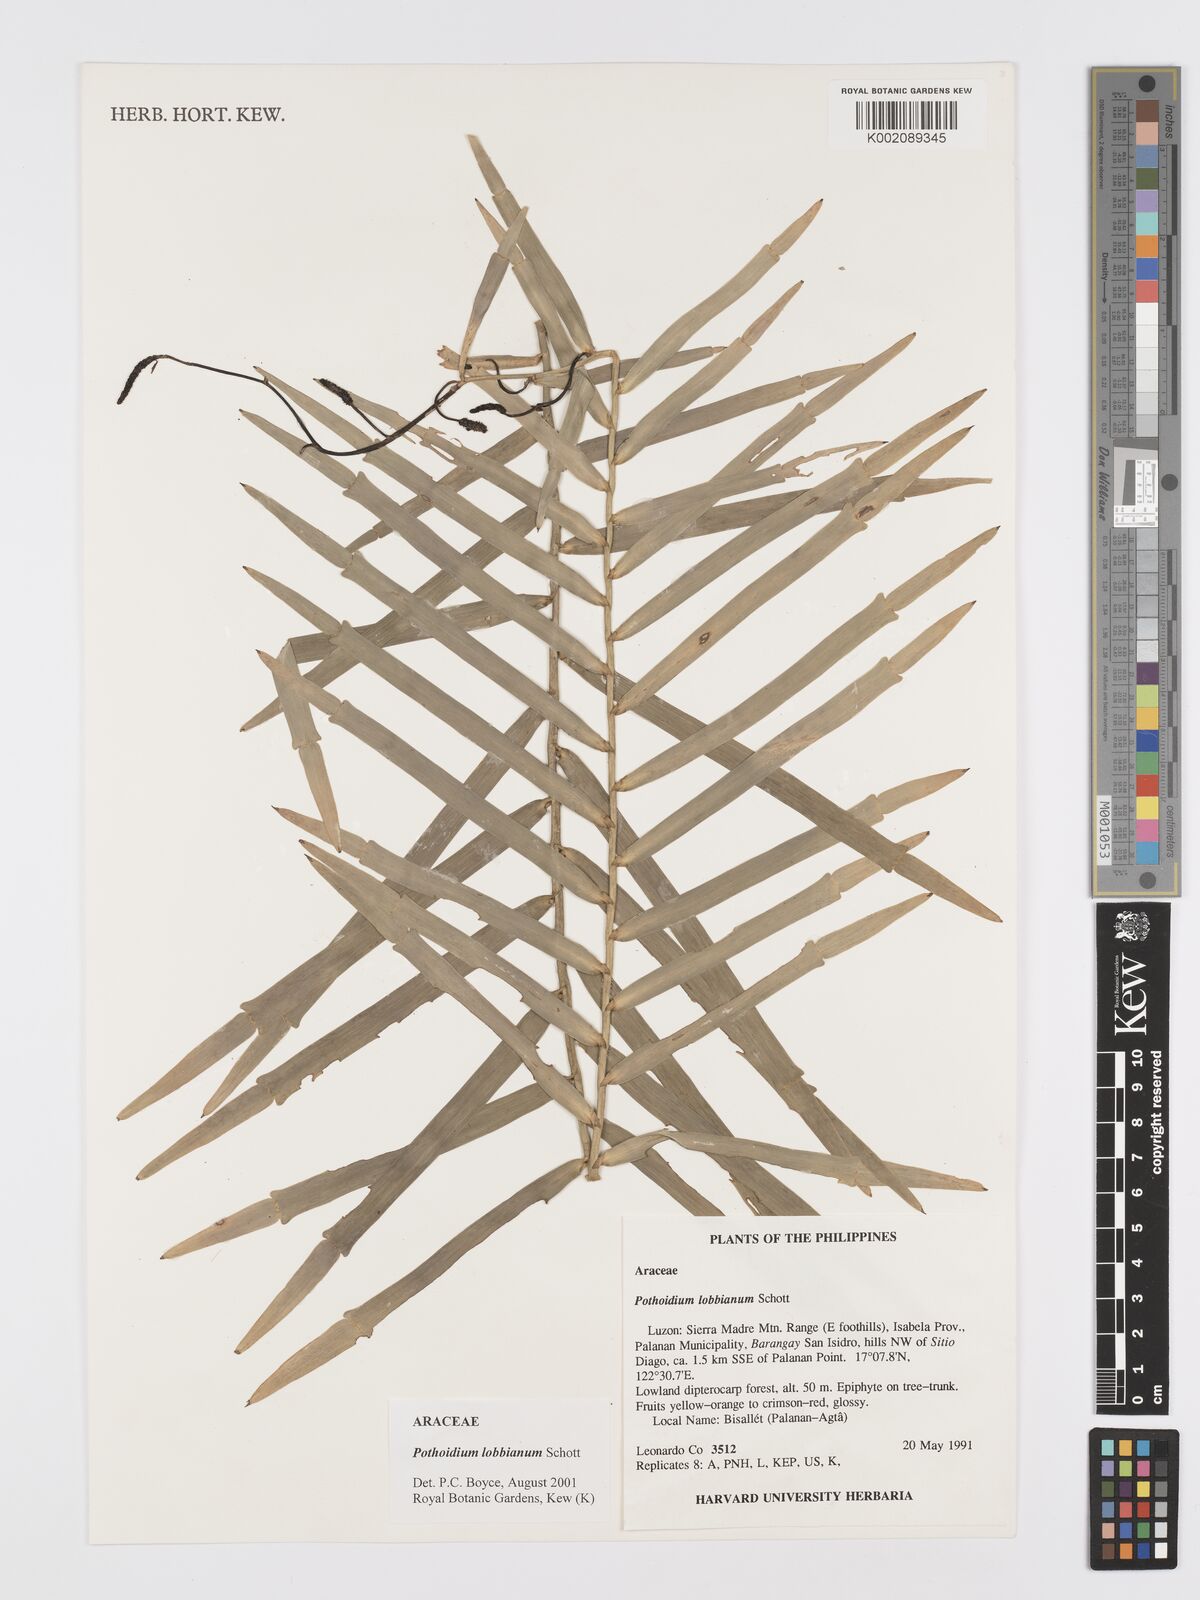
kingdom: Plantae
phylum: Tracheophyta
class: Liliopsida
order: Alismatales
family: Araceae
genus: Pothoidium
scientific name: Pothoidium lobbianum
